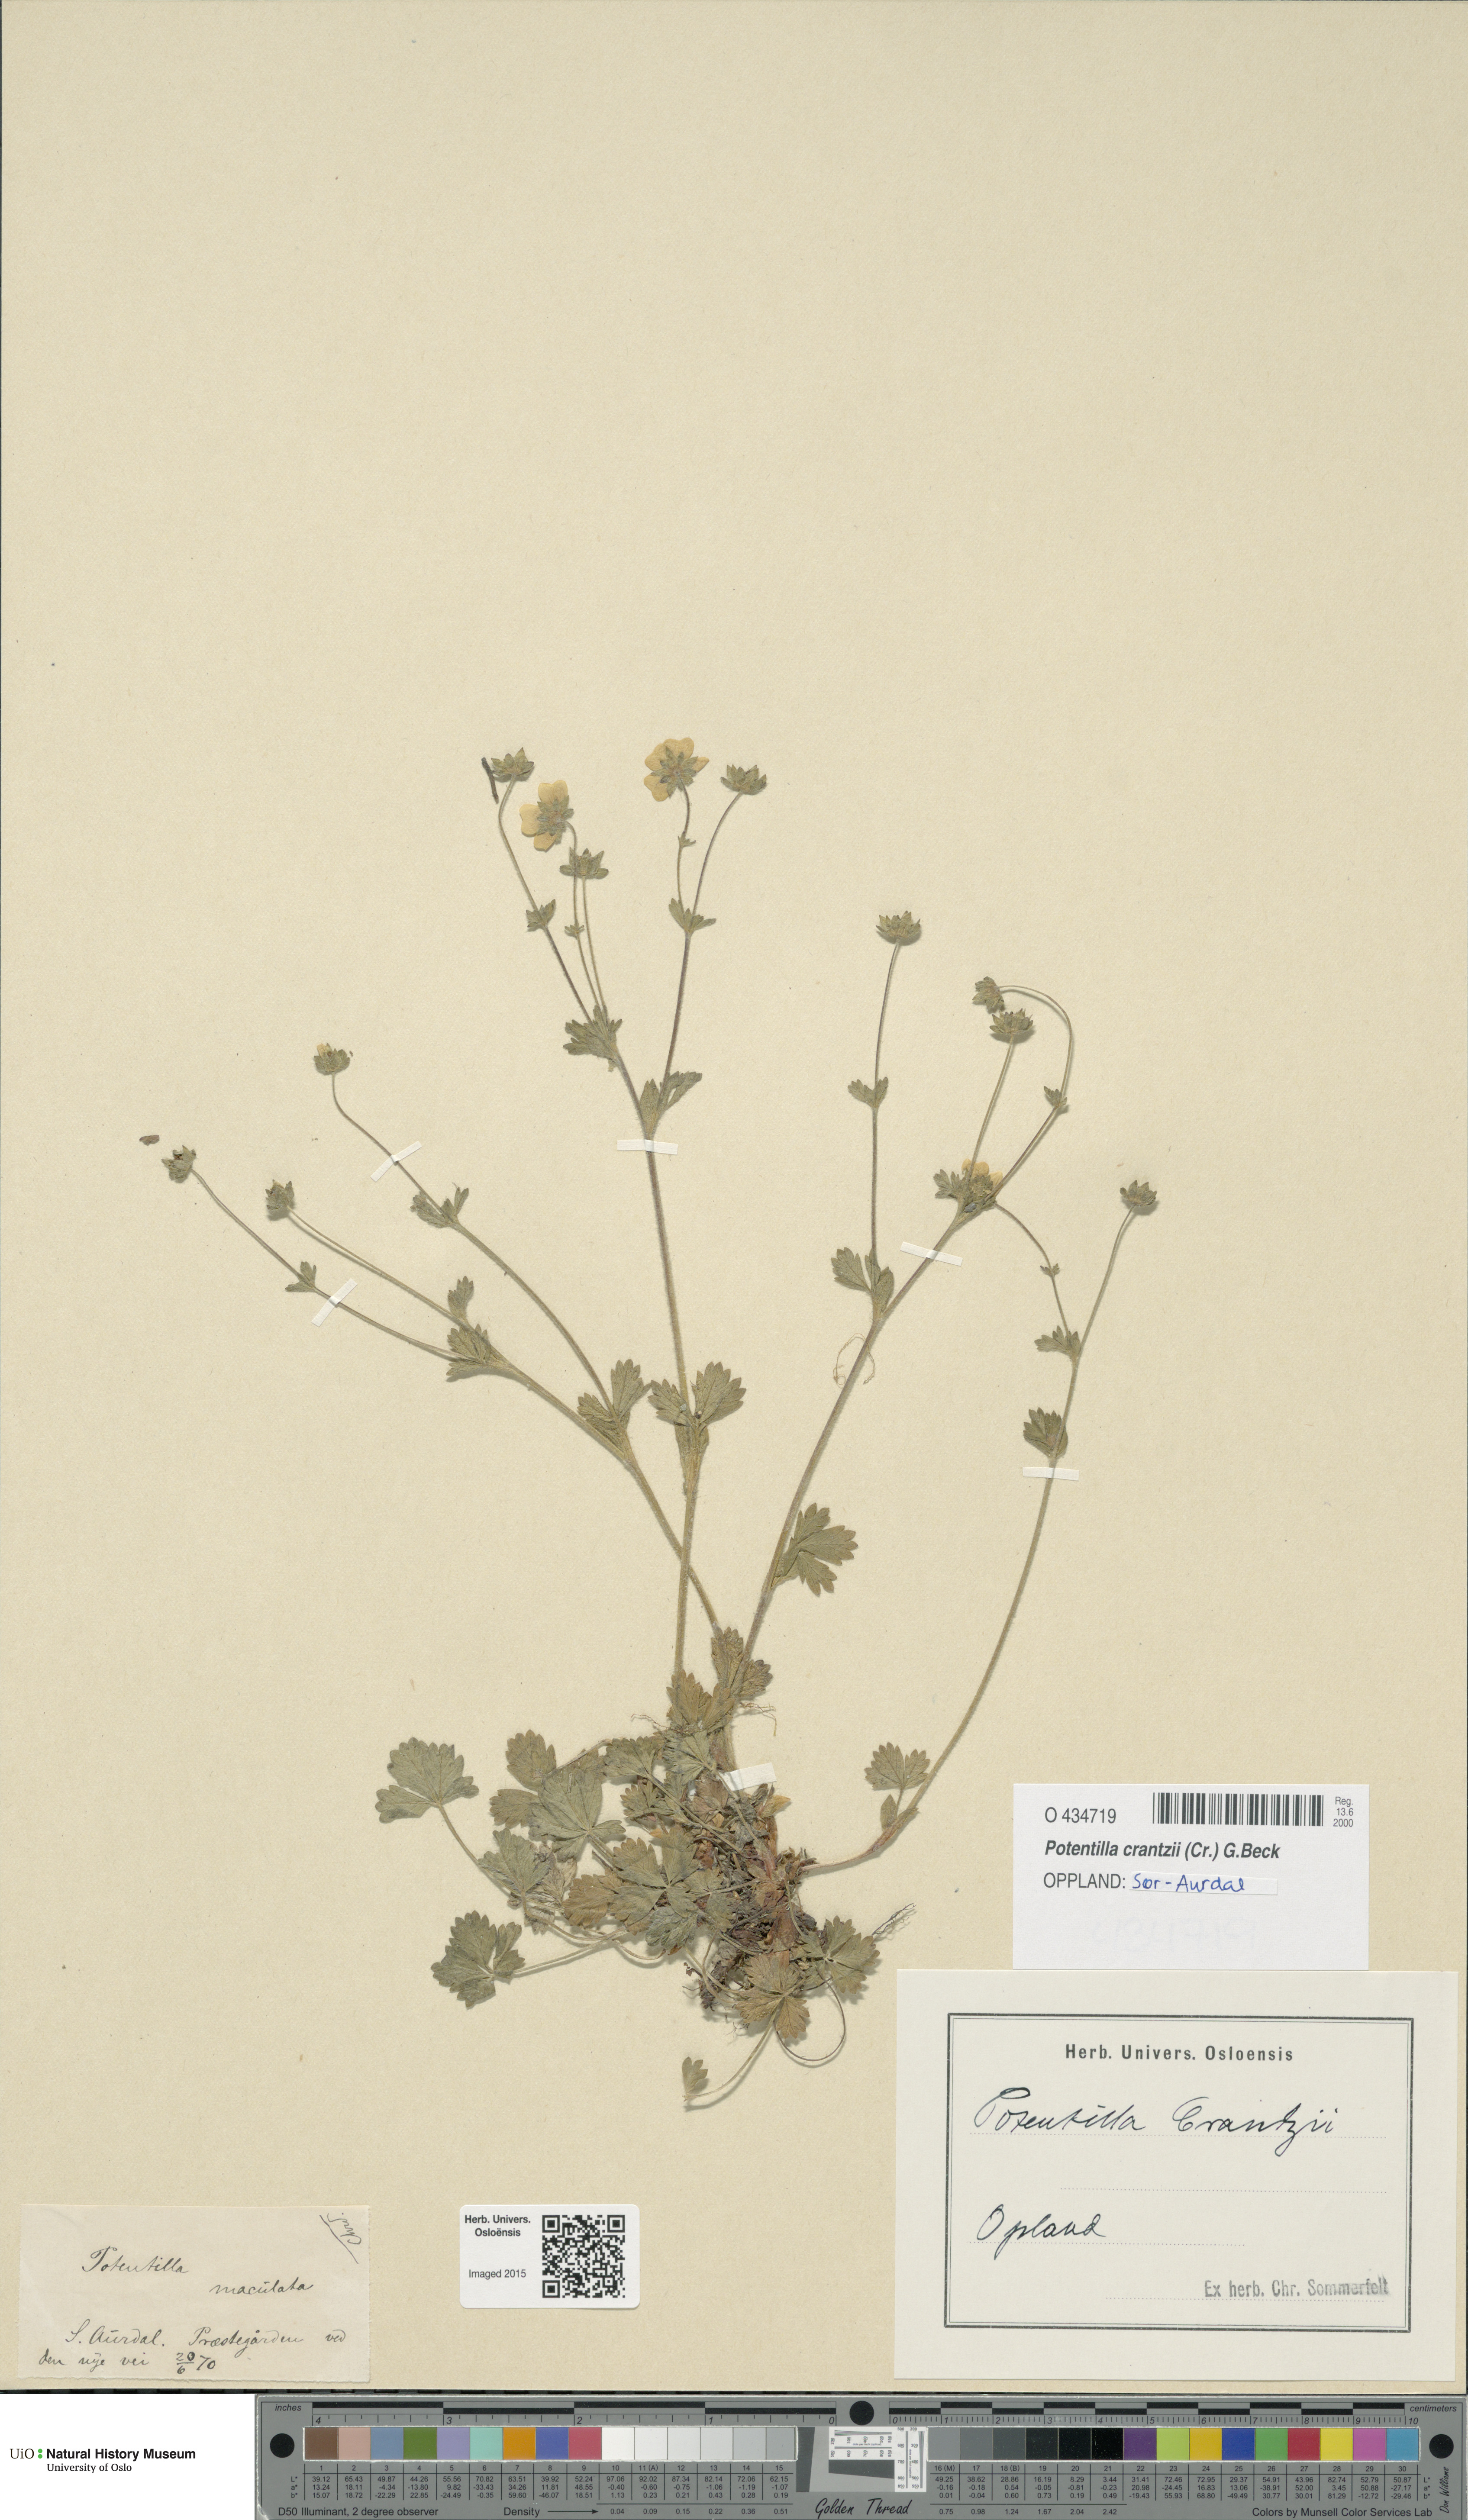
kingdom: Plantae
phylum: Tracheophyta
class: Magnoliopsida
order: Rosales
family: Rosaceae
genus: Potentilla
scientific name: Potentilla crantzii
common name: Alpine cinquefoil
